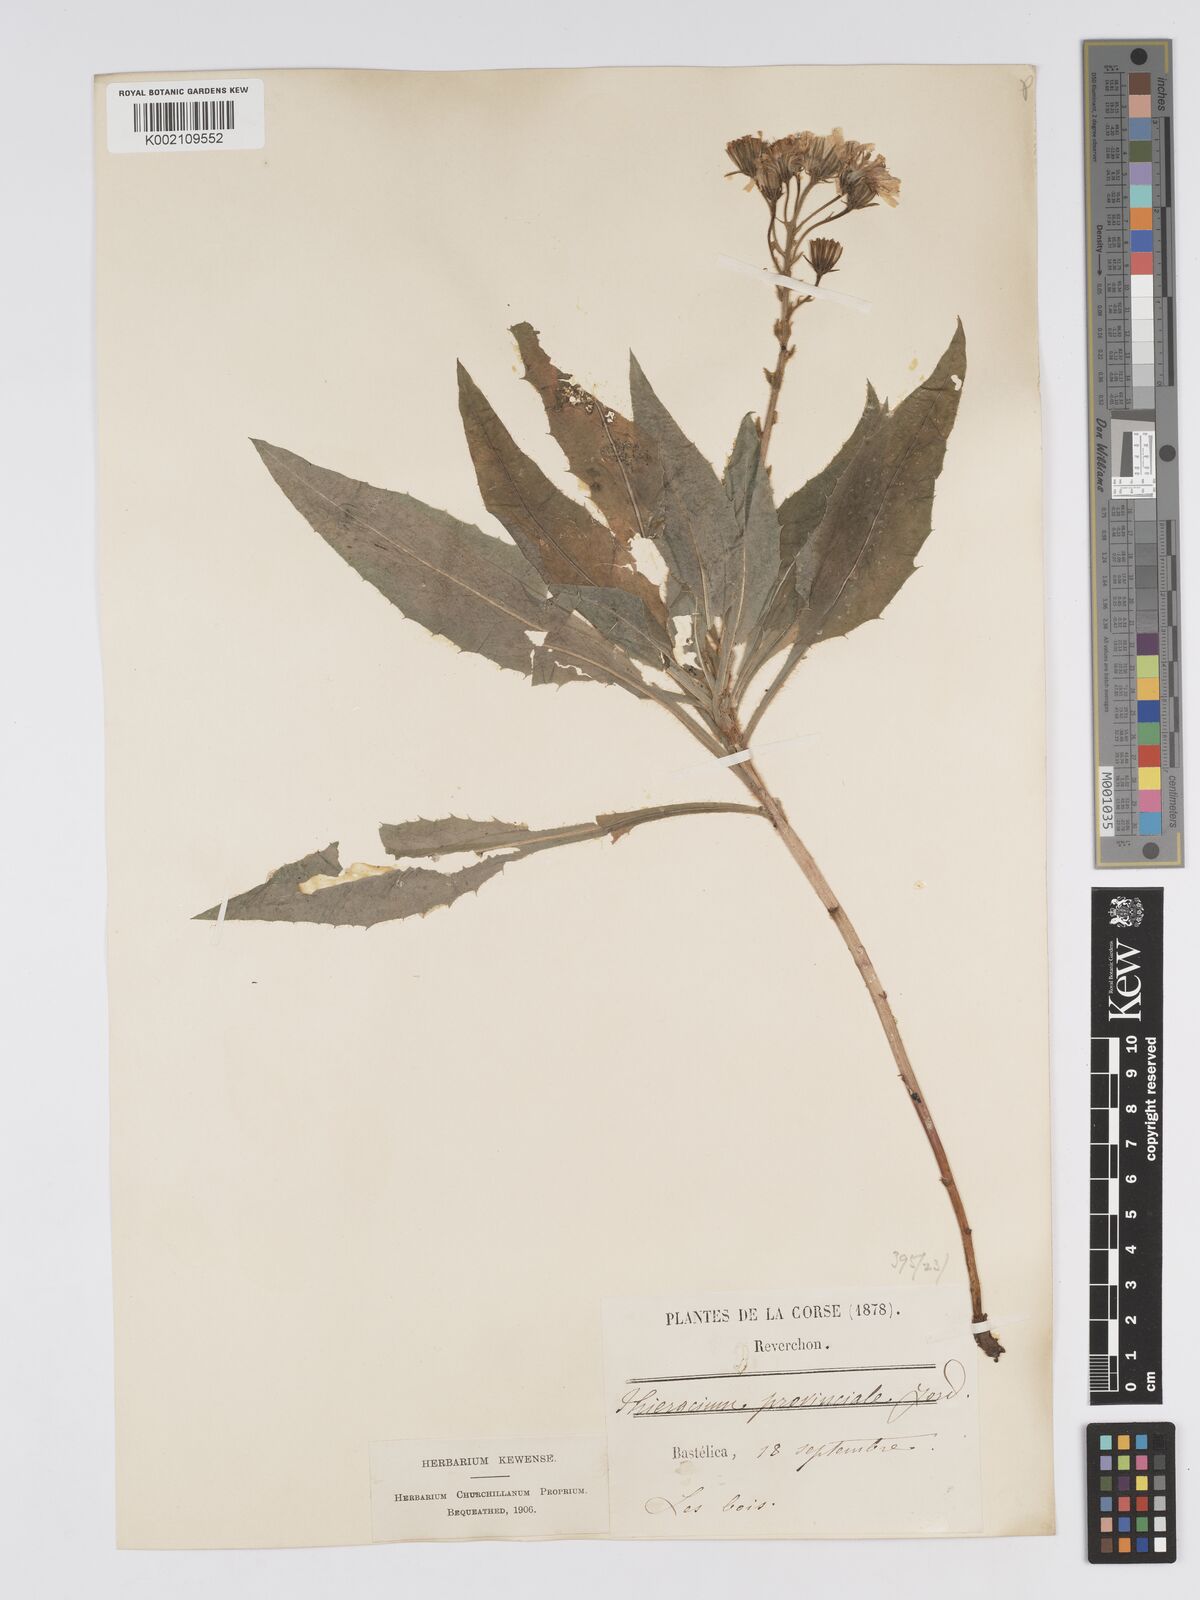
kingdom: Plantae
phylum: Tracheophyta
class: Magnoliopsida
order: Asterales
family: Asteraceae
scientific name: Asteraceae
